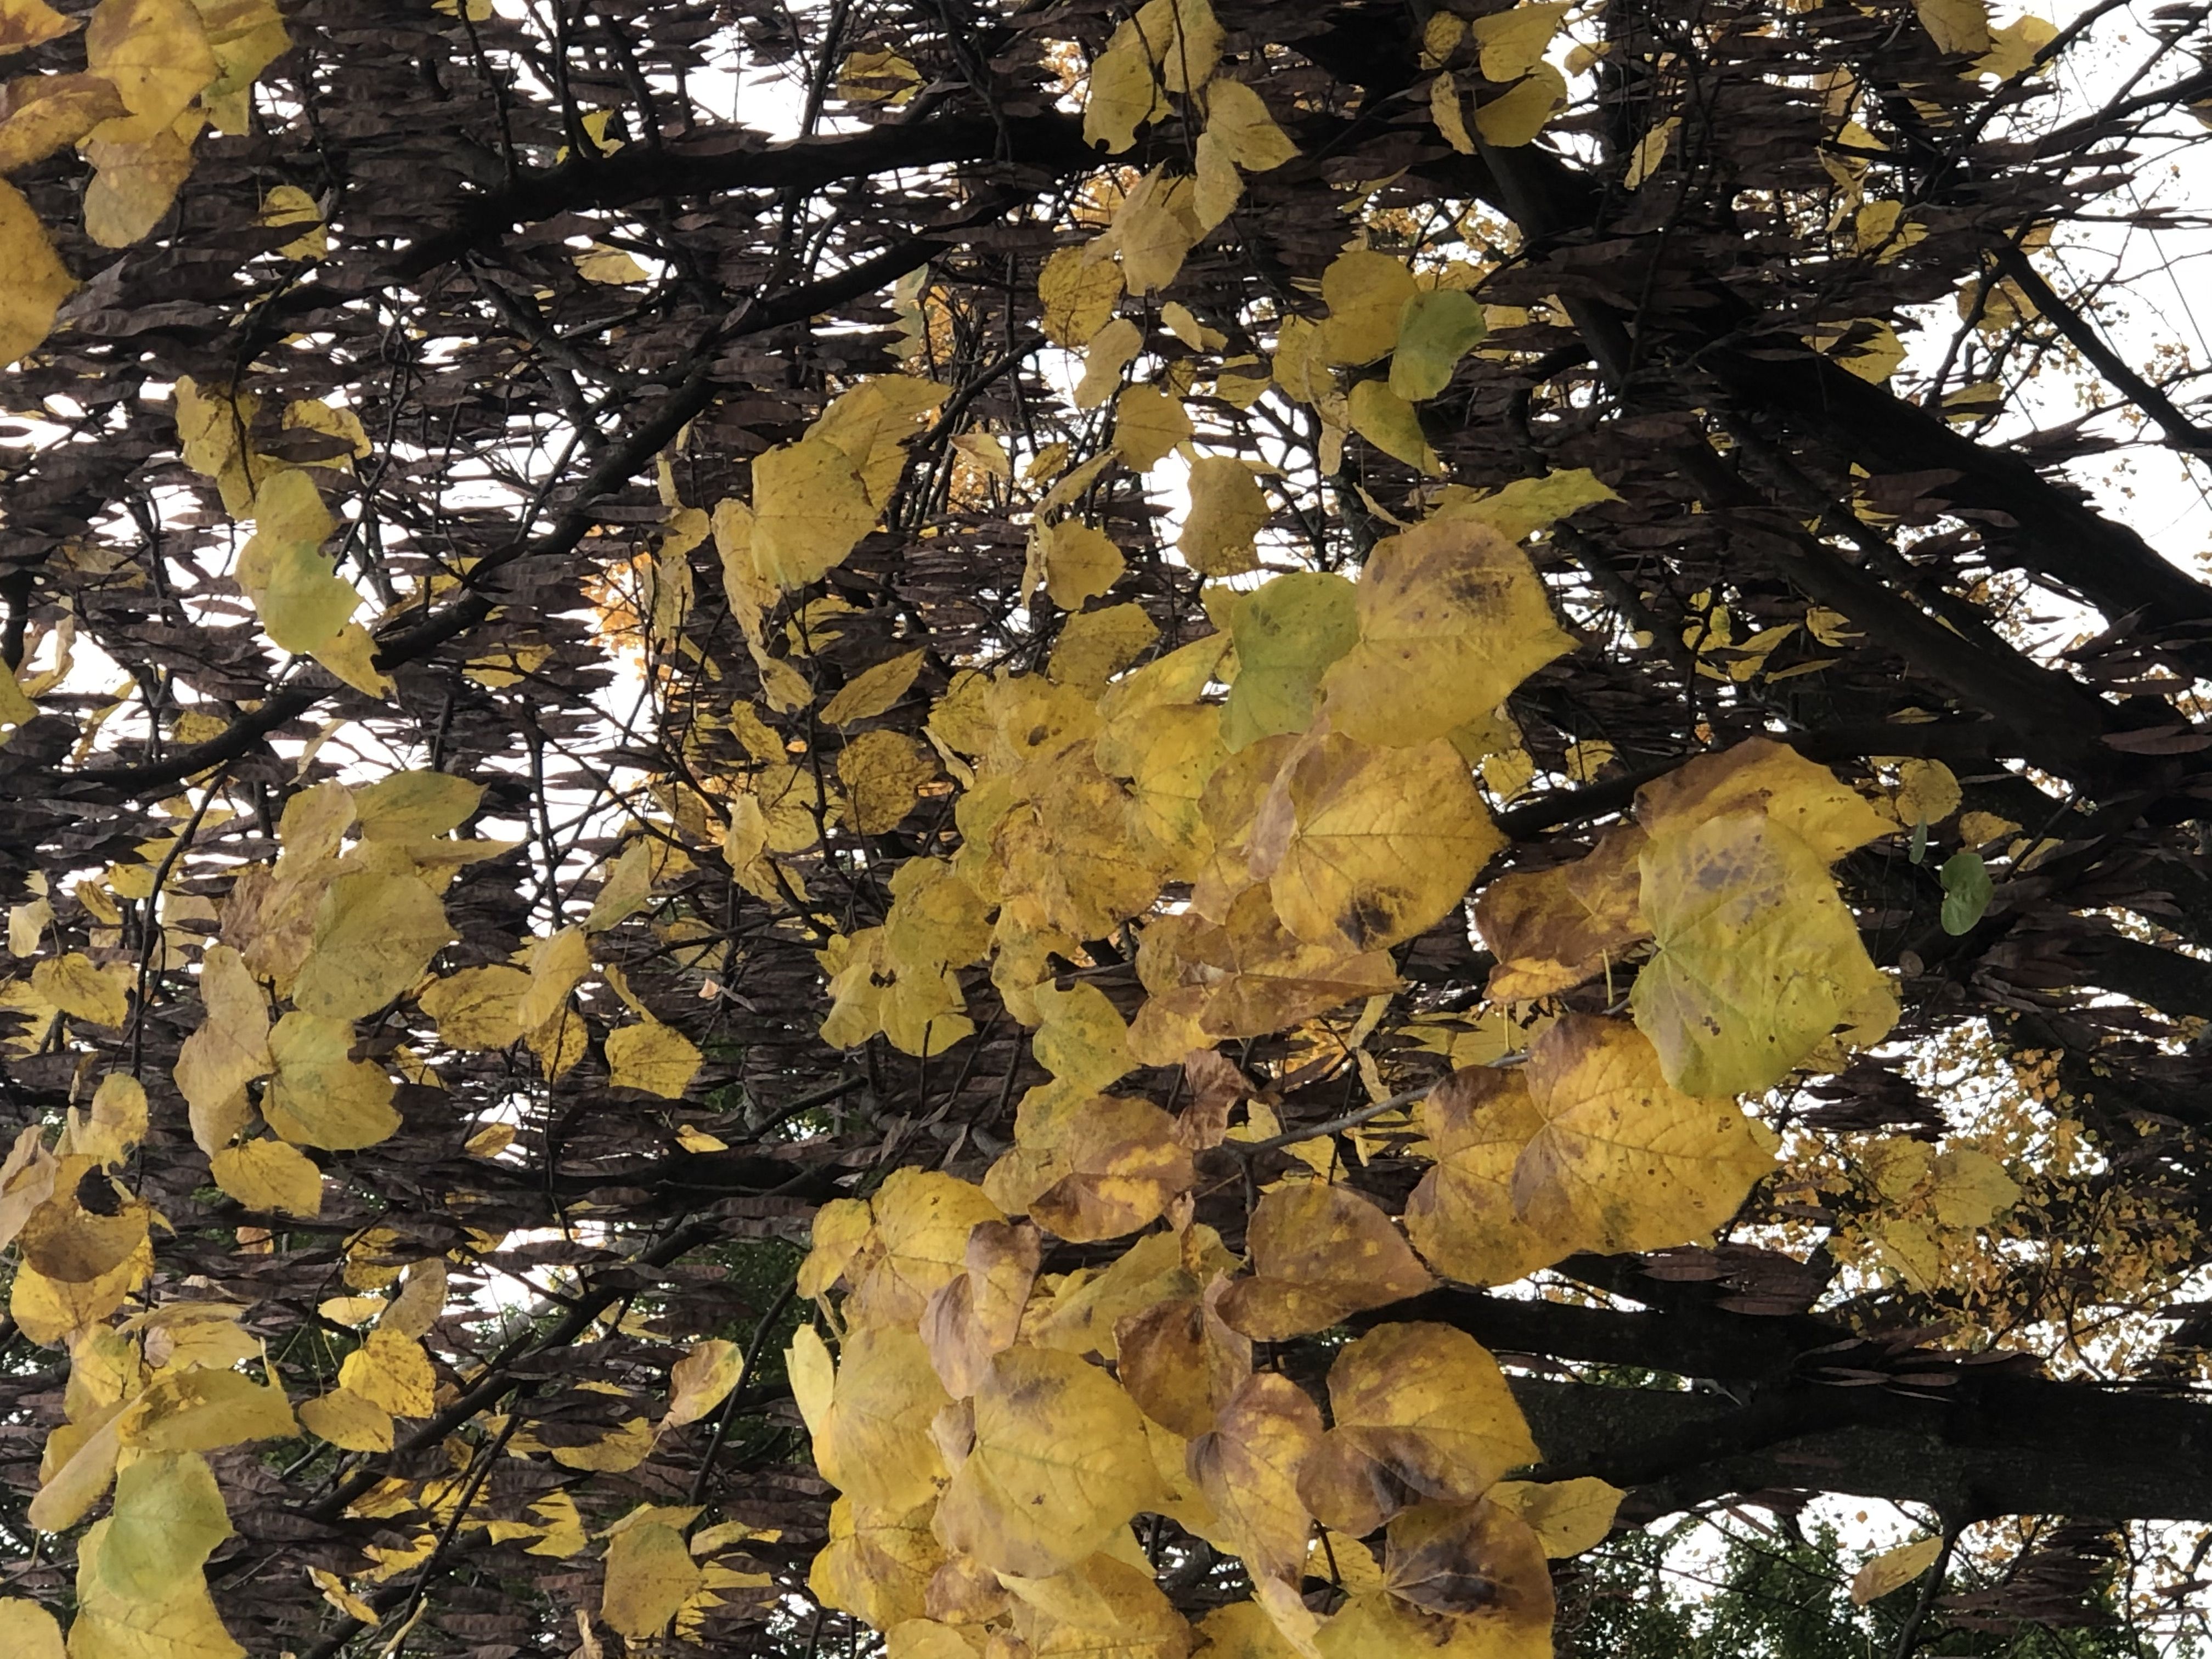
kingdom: Plantae
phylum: Tracheophyta
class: Magnoliopsida
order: Fabales
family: Fabaceae
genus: Cercis
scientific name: Cercis canadensis
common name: Eastern Redbud
